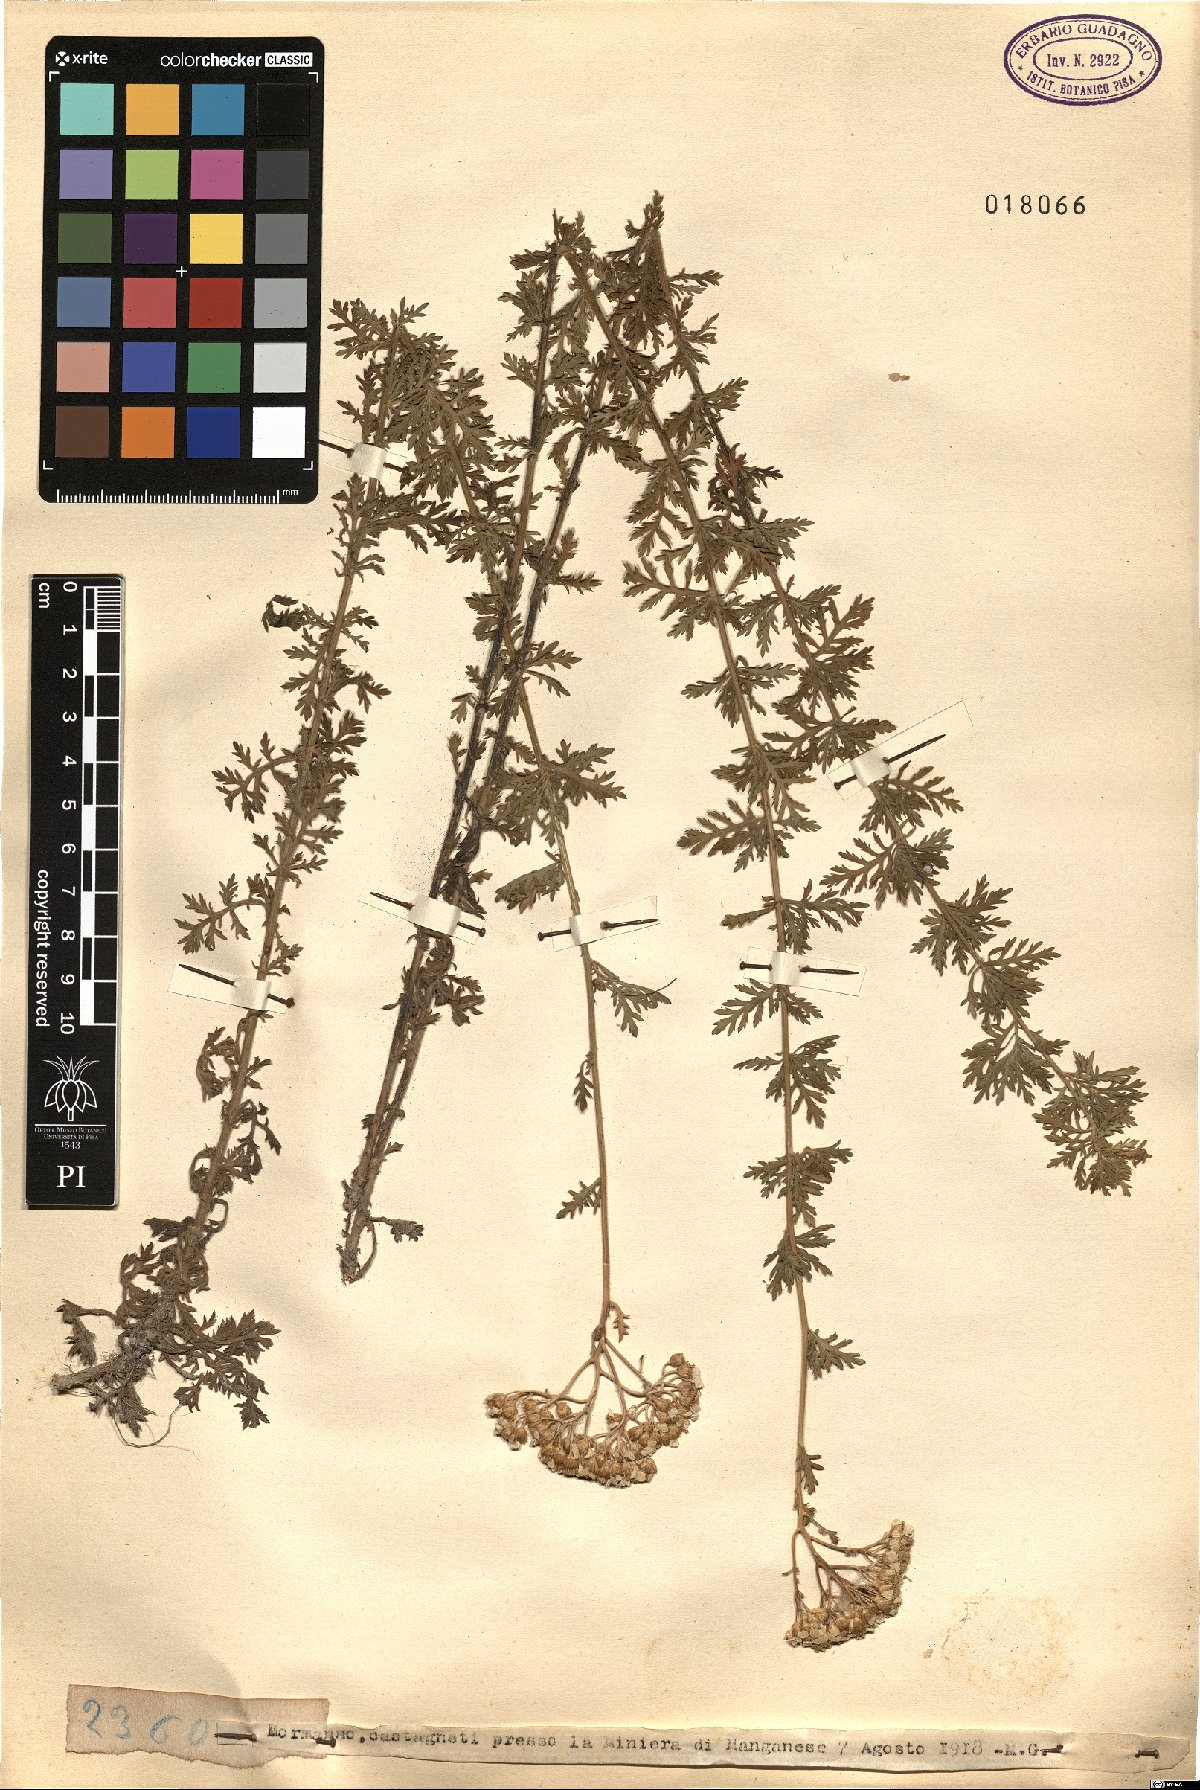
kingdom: Plantae
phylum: Tracheophyta
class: Magnoliopsida
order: Asterales
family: Asteraceae
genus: Achillea
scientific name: Achillea
